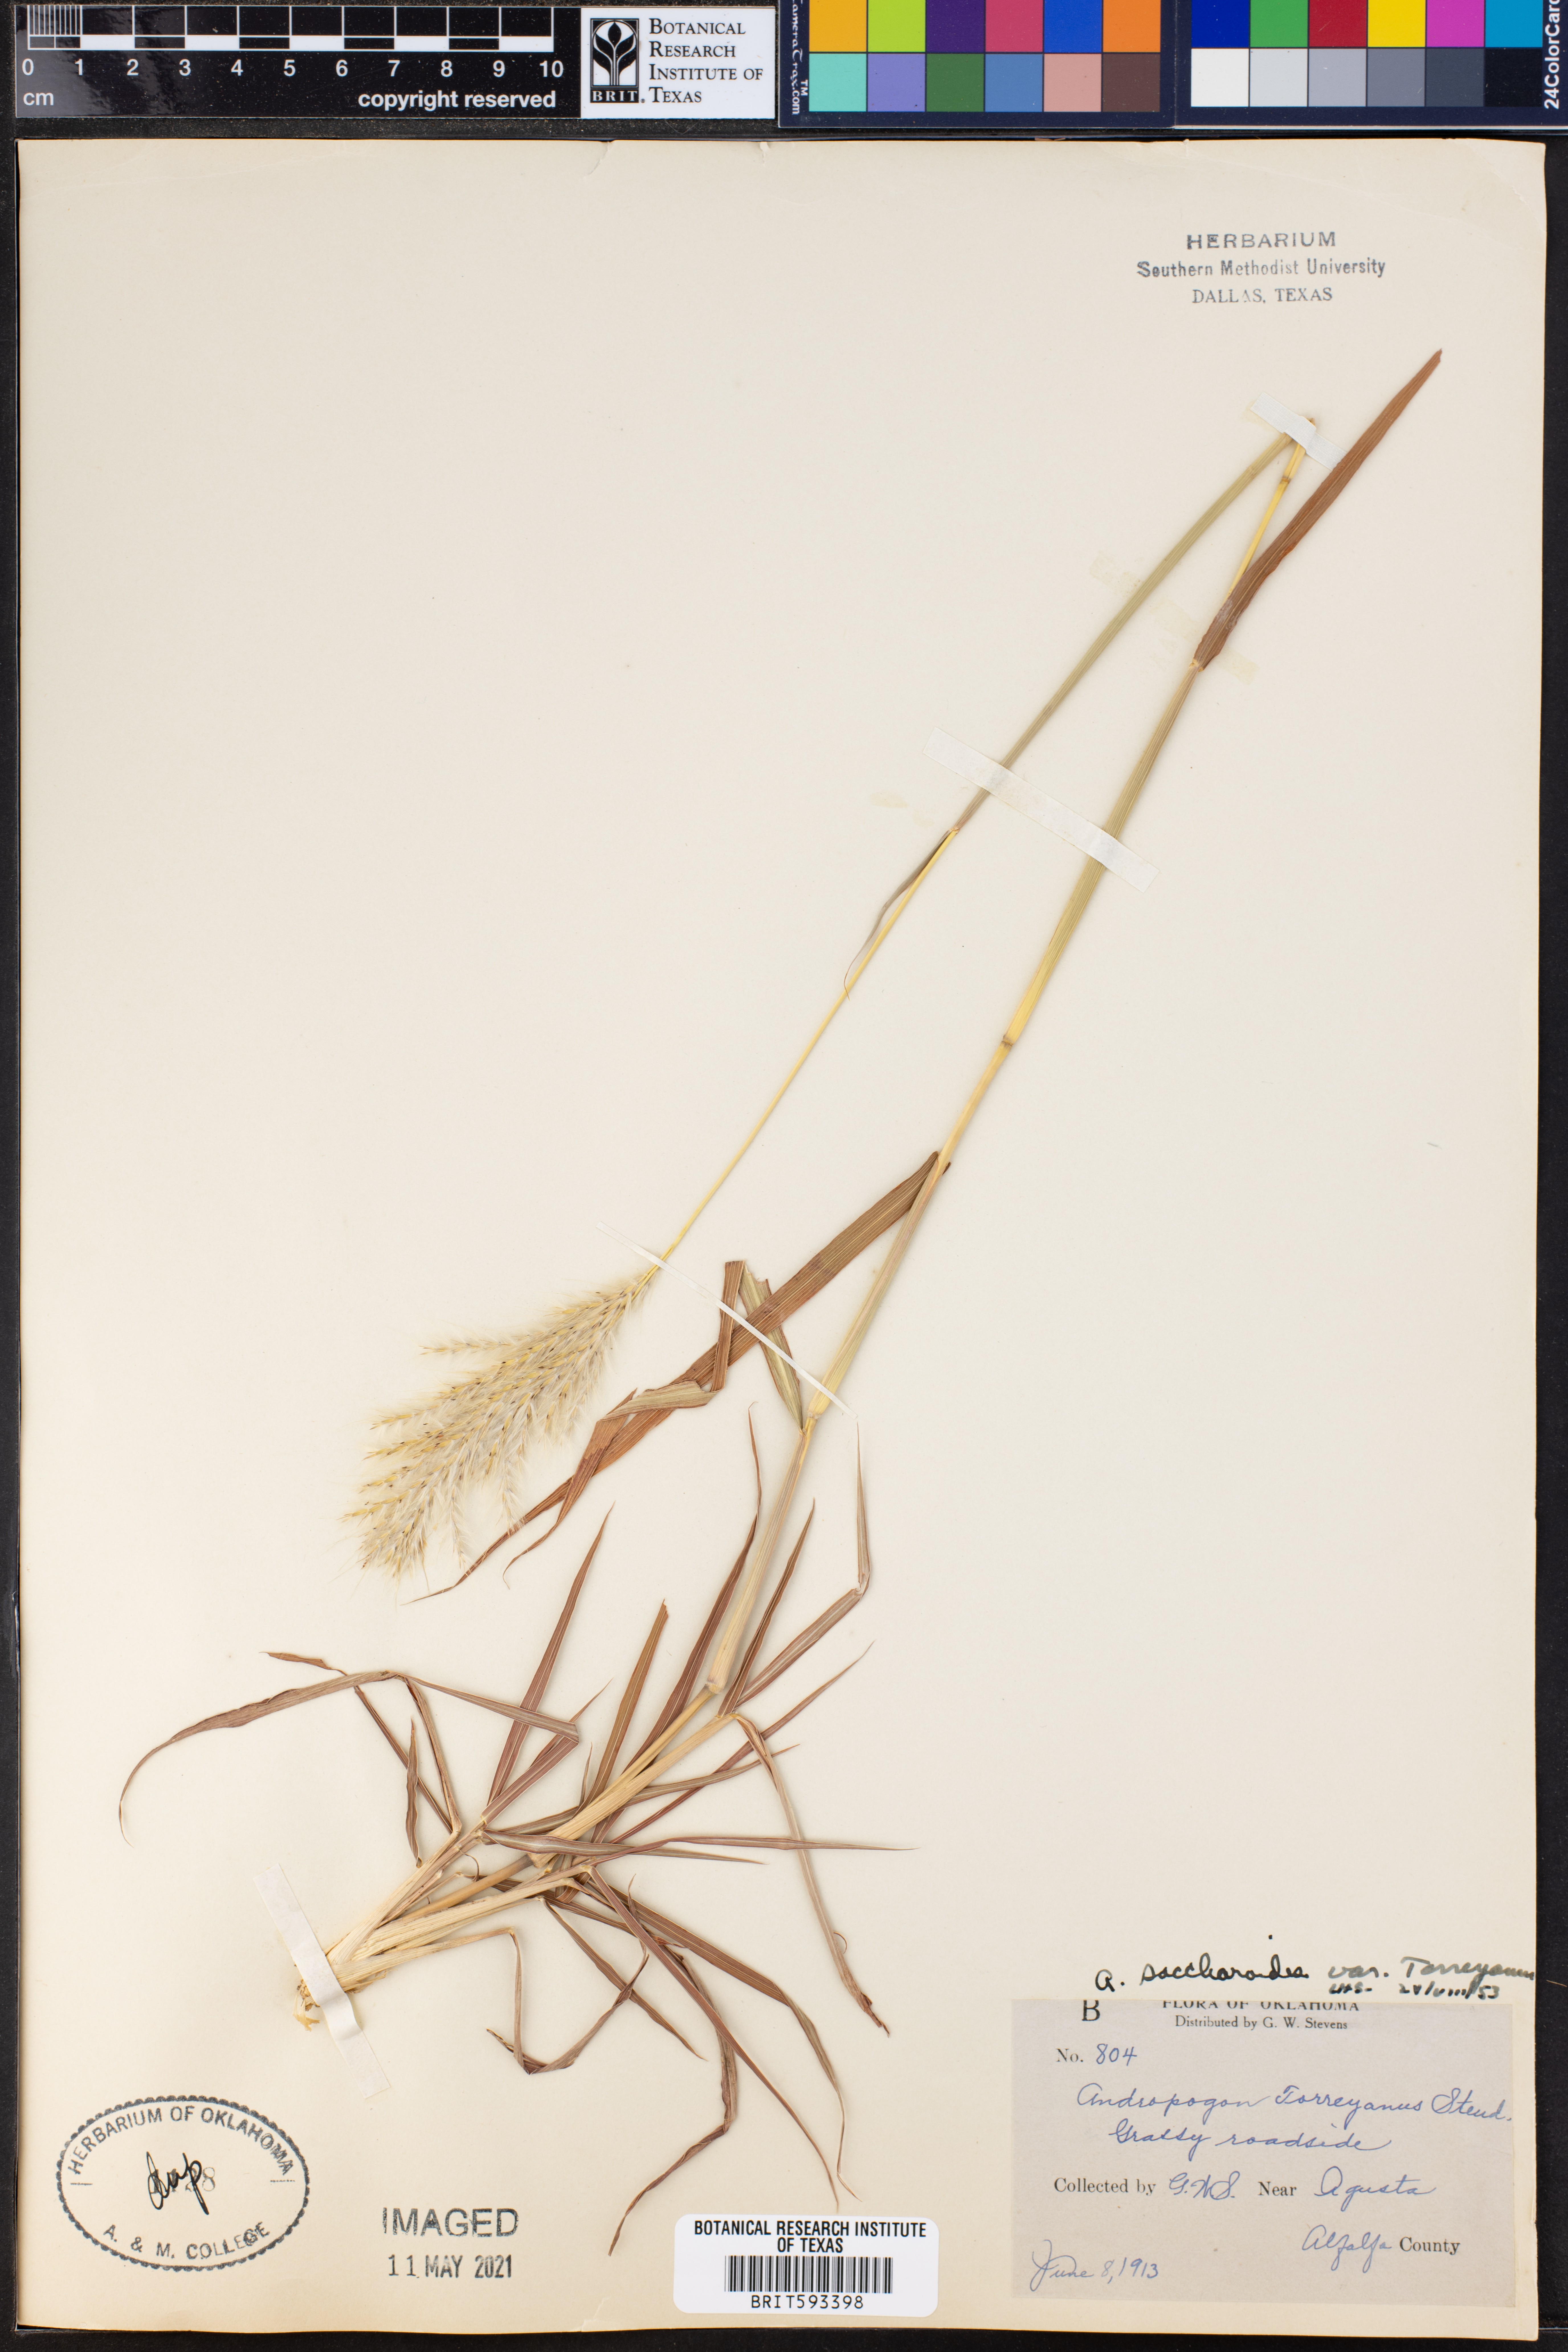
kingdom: Plantae
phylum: Tracheophyta
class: Liliopsida
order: Poales
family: Poaceae
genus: Bothriochloa
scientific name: Bothriochloa torreyana
